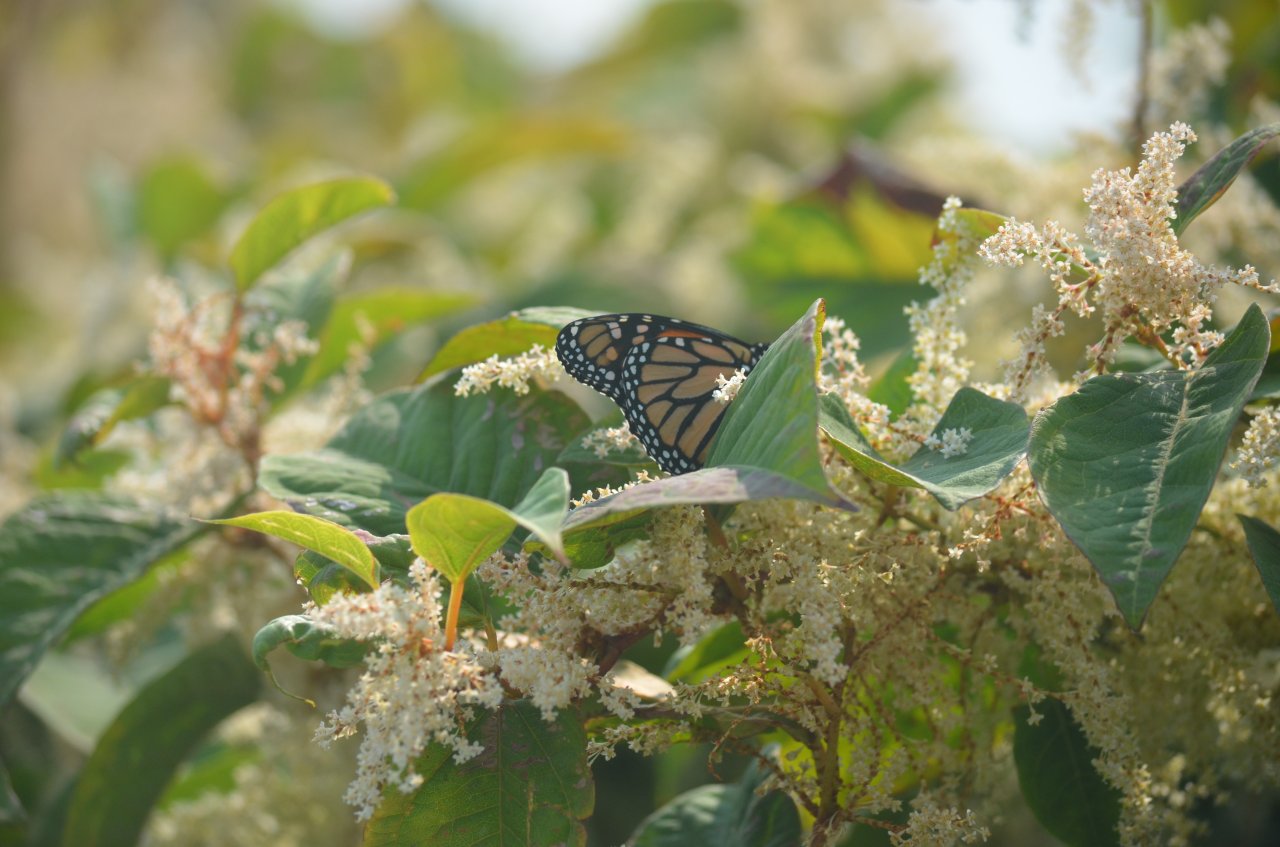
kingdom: Animalia
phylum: Arthropoda
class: Insecta
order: Lepidoptera
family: Nymphalidae
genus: Danaus
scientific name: Danaus plexippus
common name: Monarch
